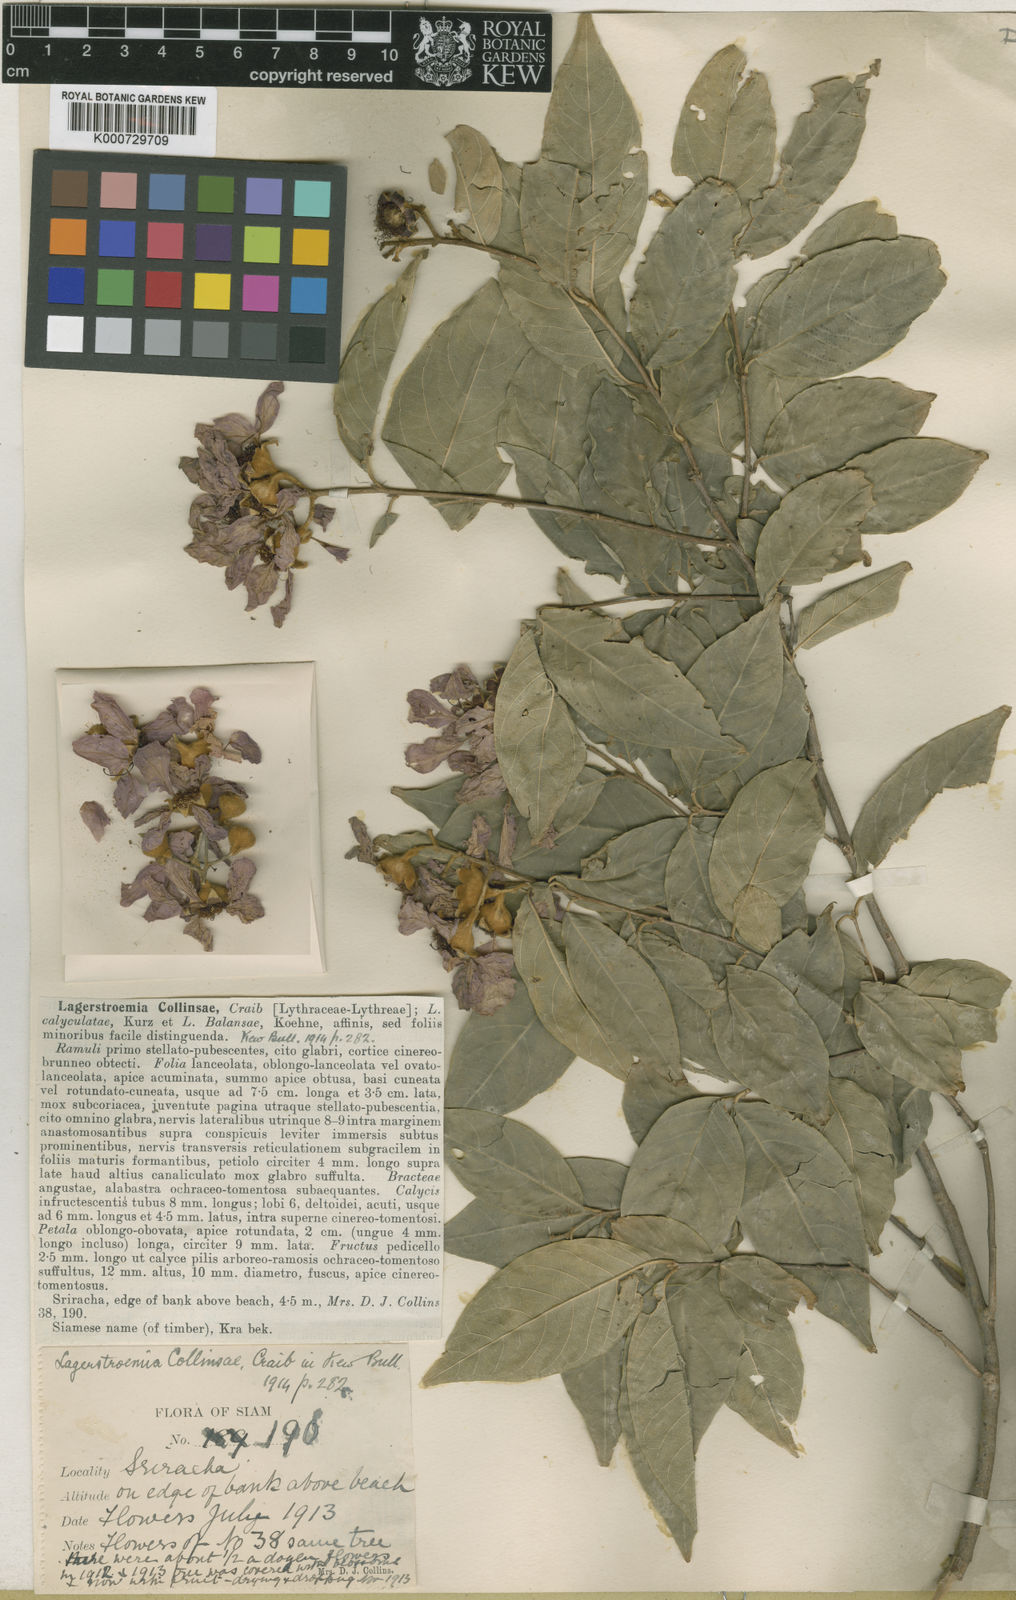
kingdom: Plantae
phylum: Tracheophyta
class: Magnoliopsida
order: Myrtales
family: Lythraceae
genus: Lagerstroemia
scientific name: Lagerstroemia cochinchinensis
